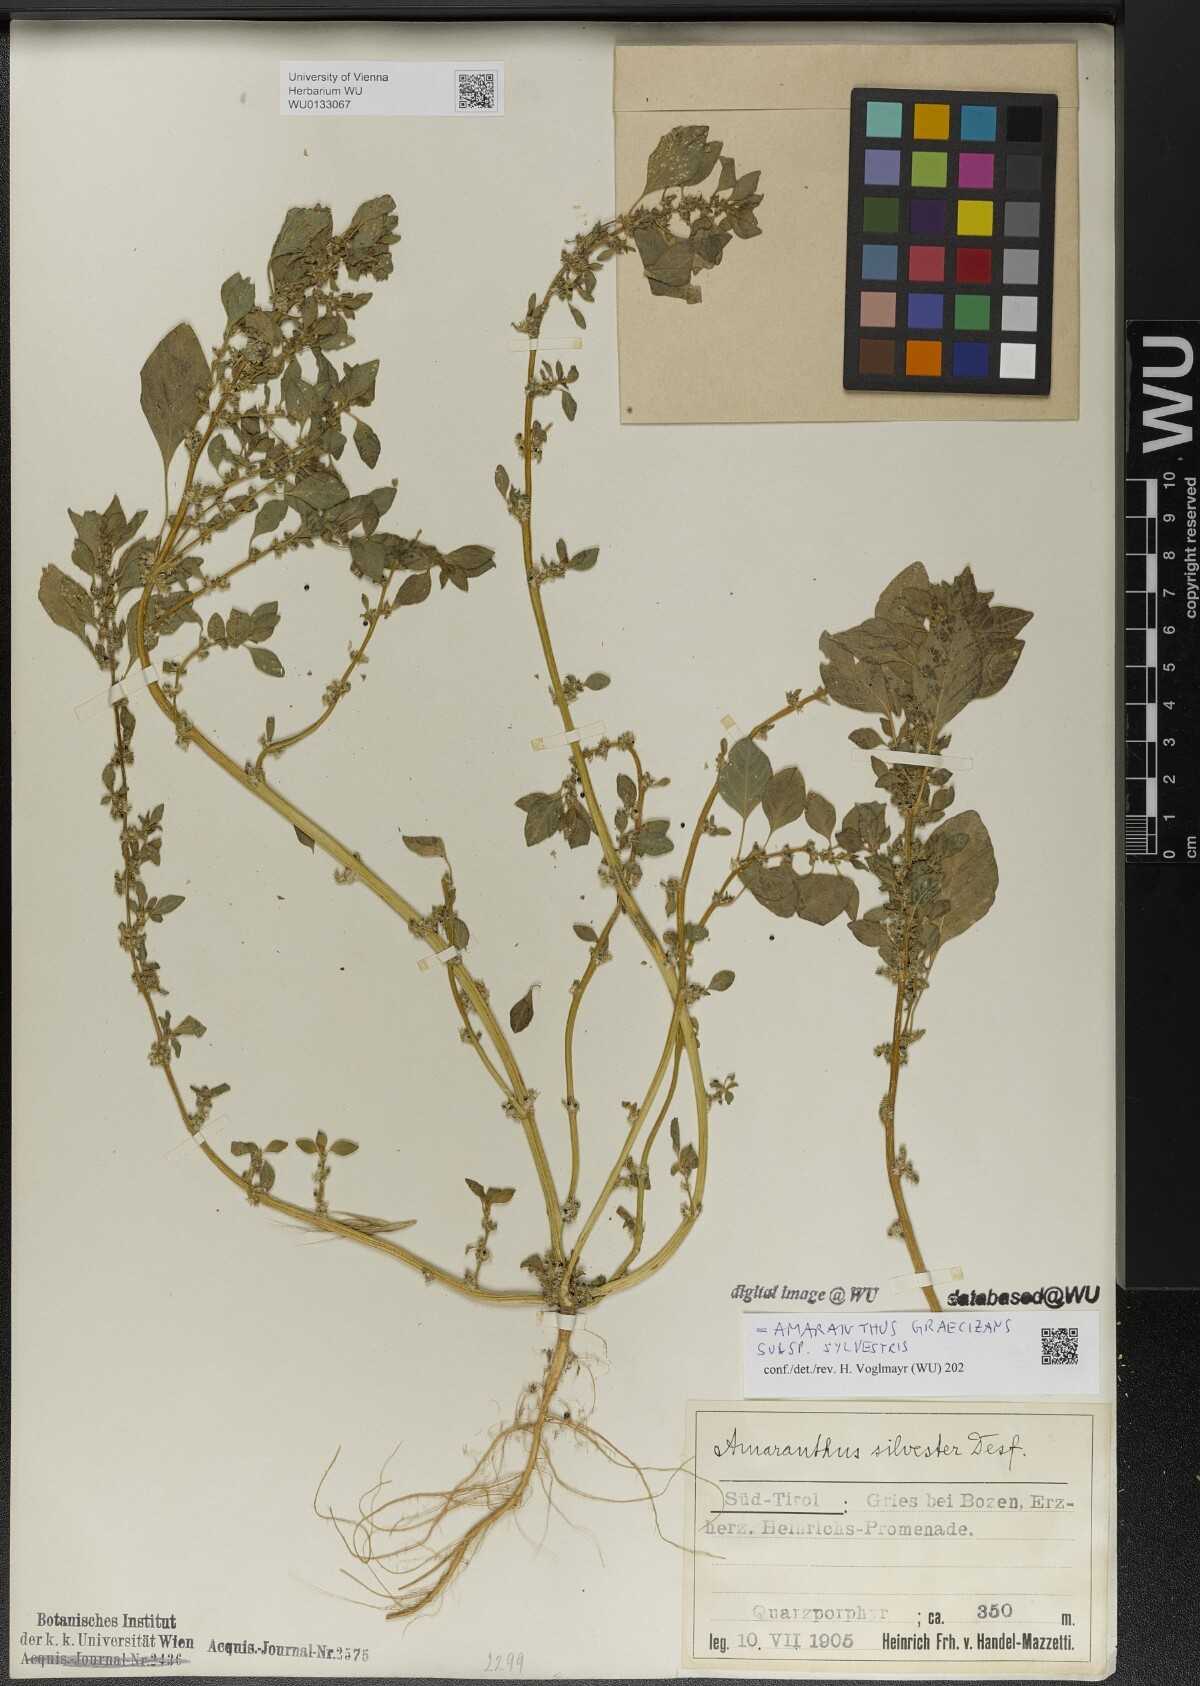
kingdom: Plantae
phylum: Tracheophyta
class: Magnoliopsida
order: Caryophyllales
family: Amaranthaceae
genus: Amaranthus
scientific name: Amaranthus graecizans
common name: Mediterranean amaranth
